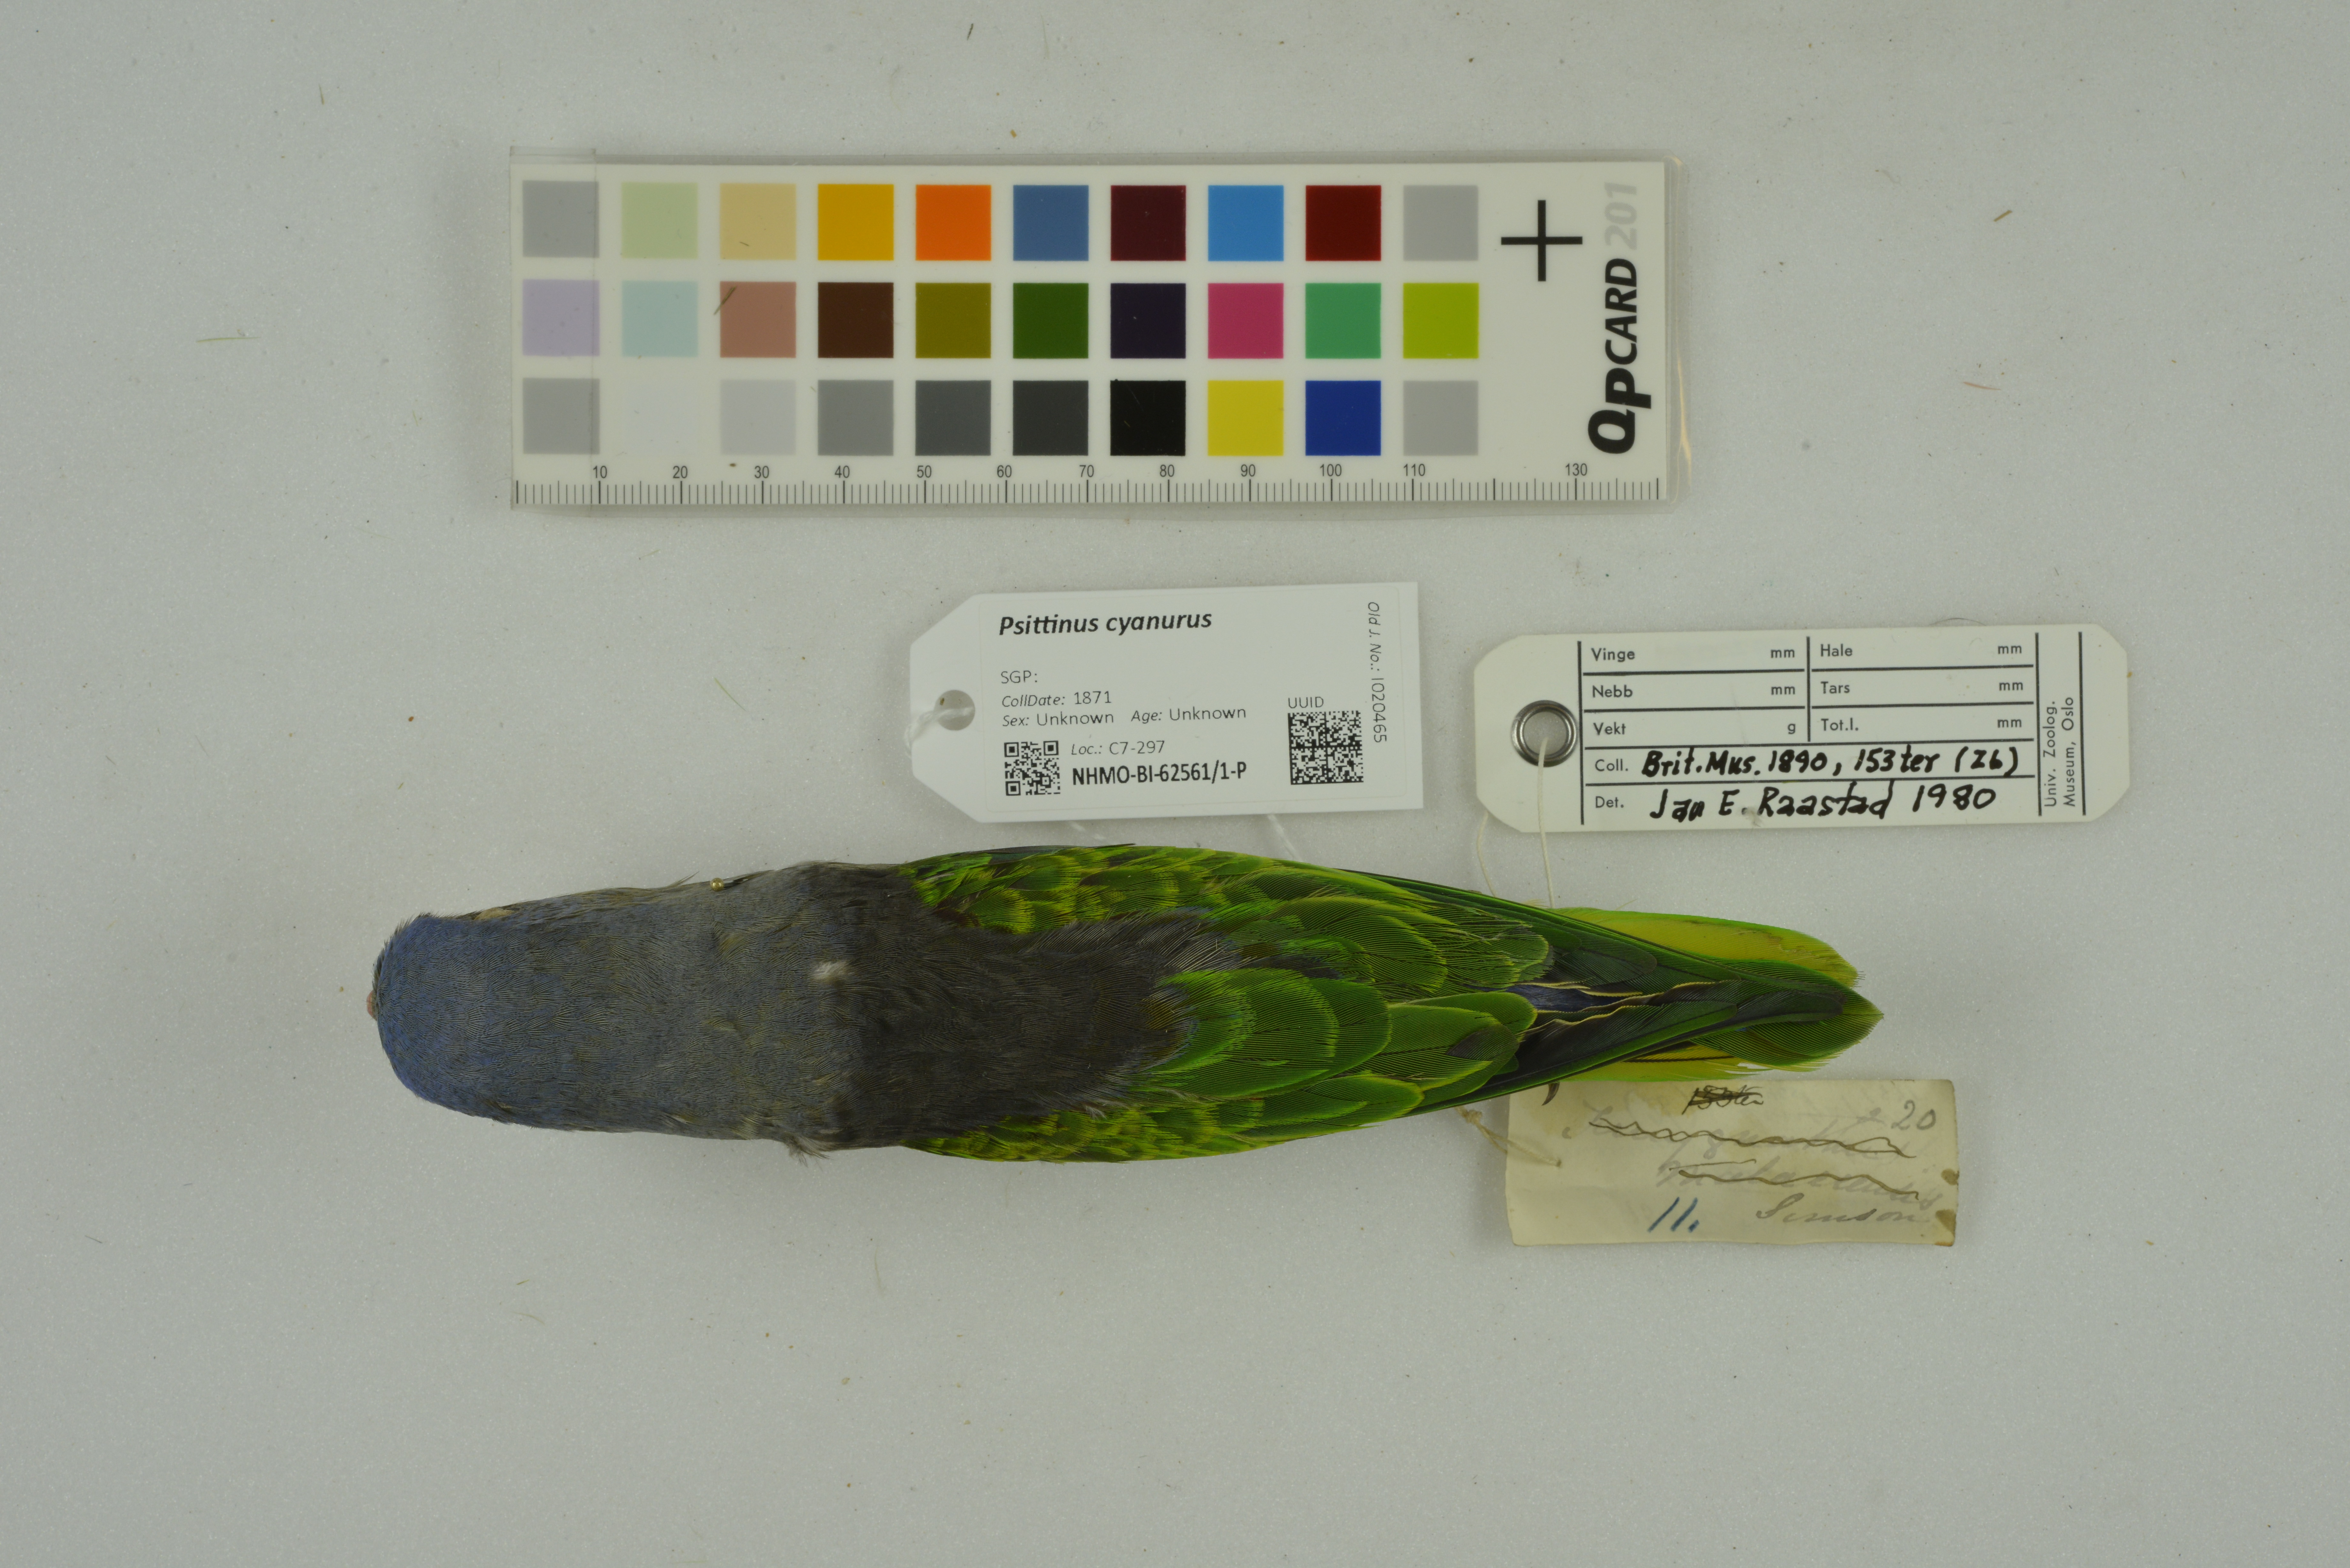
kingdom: Animalia
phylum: Chordata
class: Aves
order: Psittaciformes
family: Psittacidae
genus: Psittinus
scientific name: Psittinus cyanurus
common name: Blue-rumped parrot
